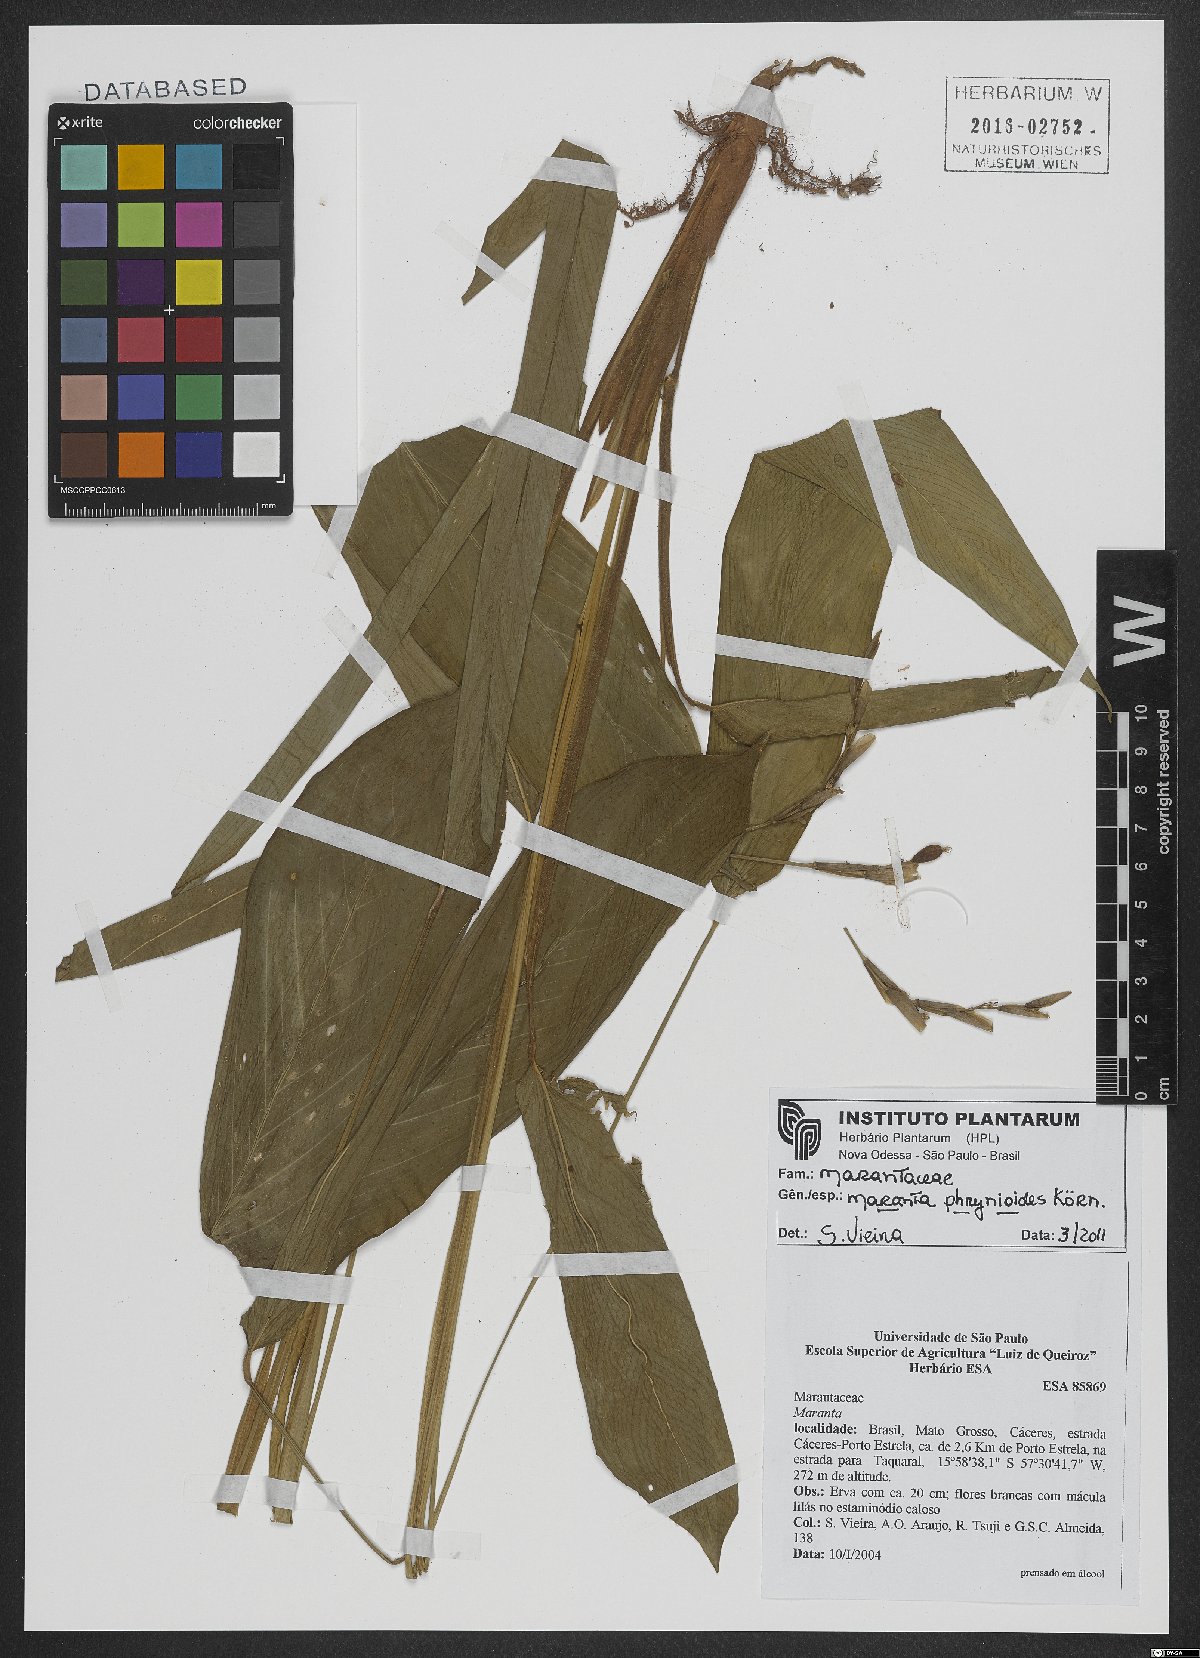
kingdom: Plantae
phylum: Tracheophyta
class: Liliopsida
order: Zingiberales
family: Marantaceae
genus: Maranta
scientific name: Maranta phrynioides
